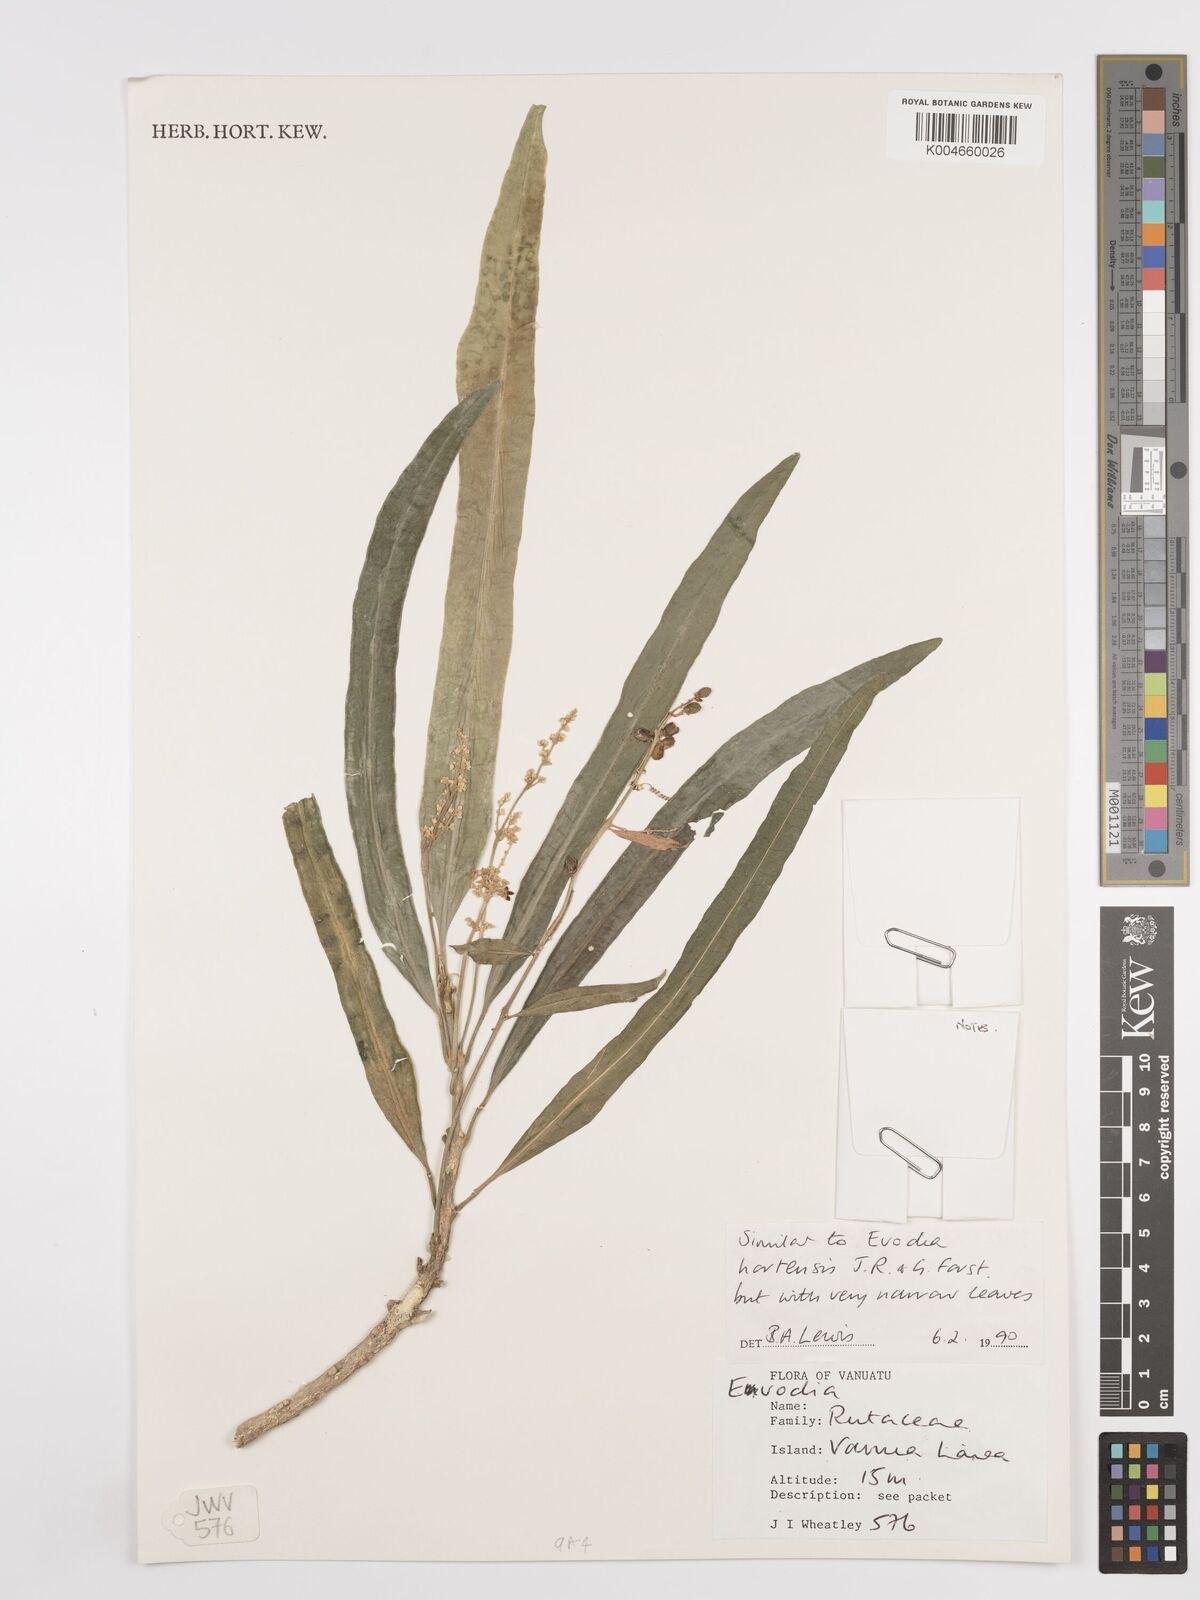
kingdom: Plantae
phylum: Tracheophyta
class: Magnoliopsida
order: Sapindales
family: Rutaceae
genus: Euodia
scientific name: Euodia hortensis
